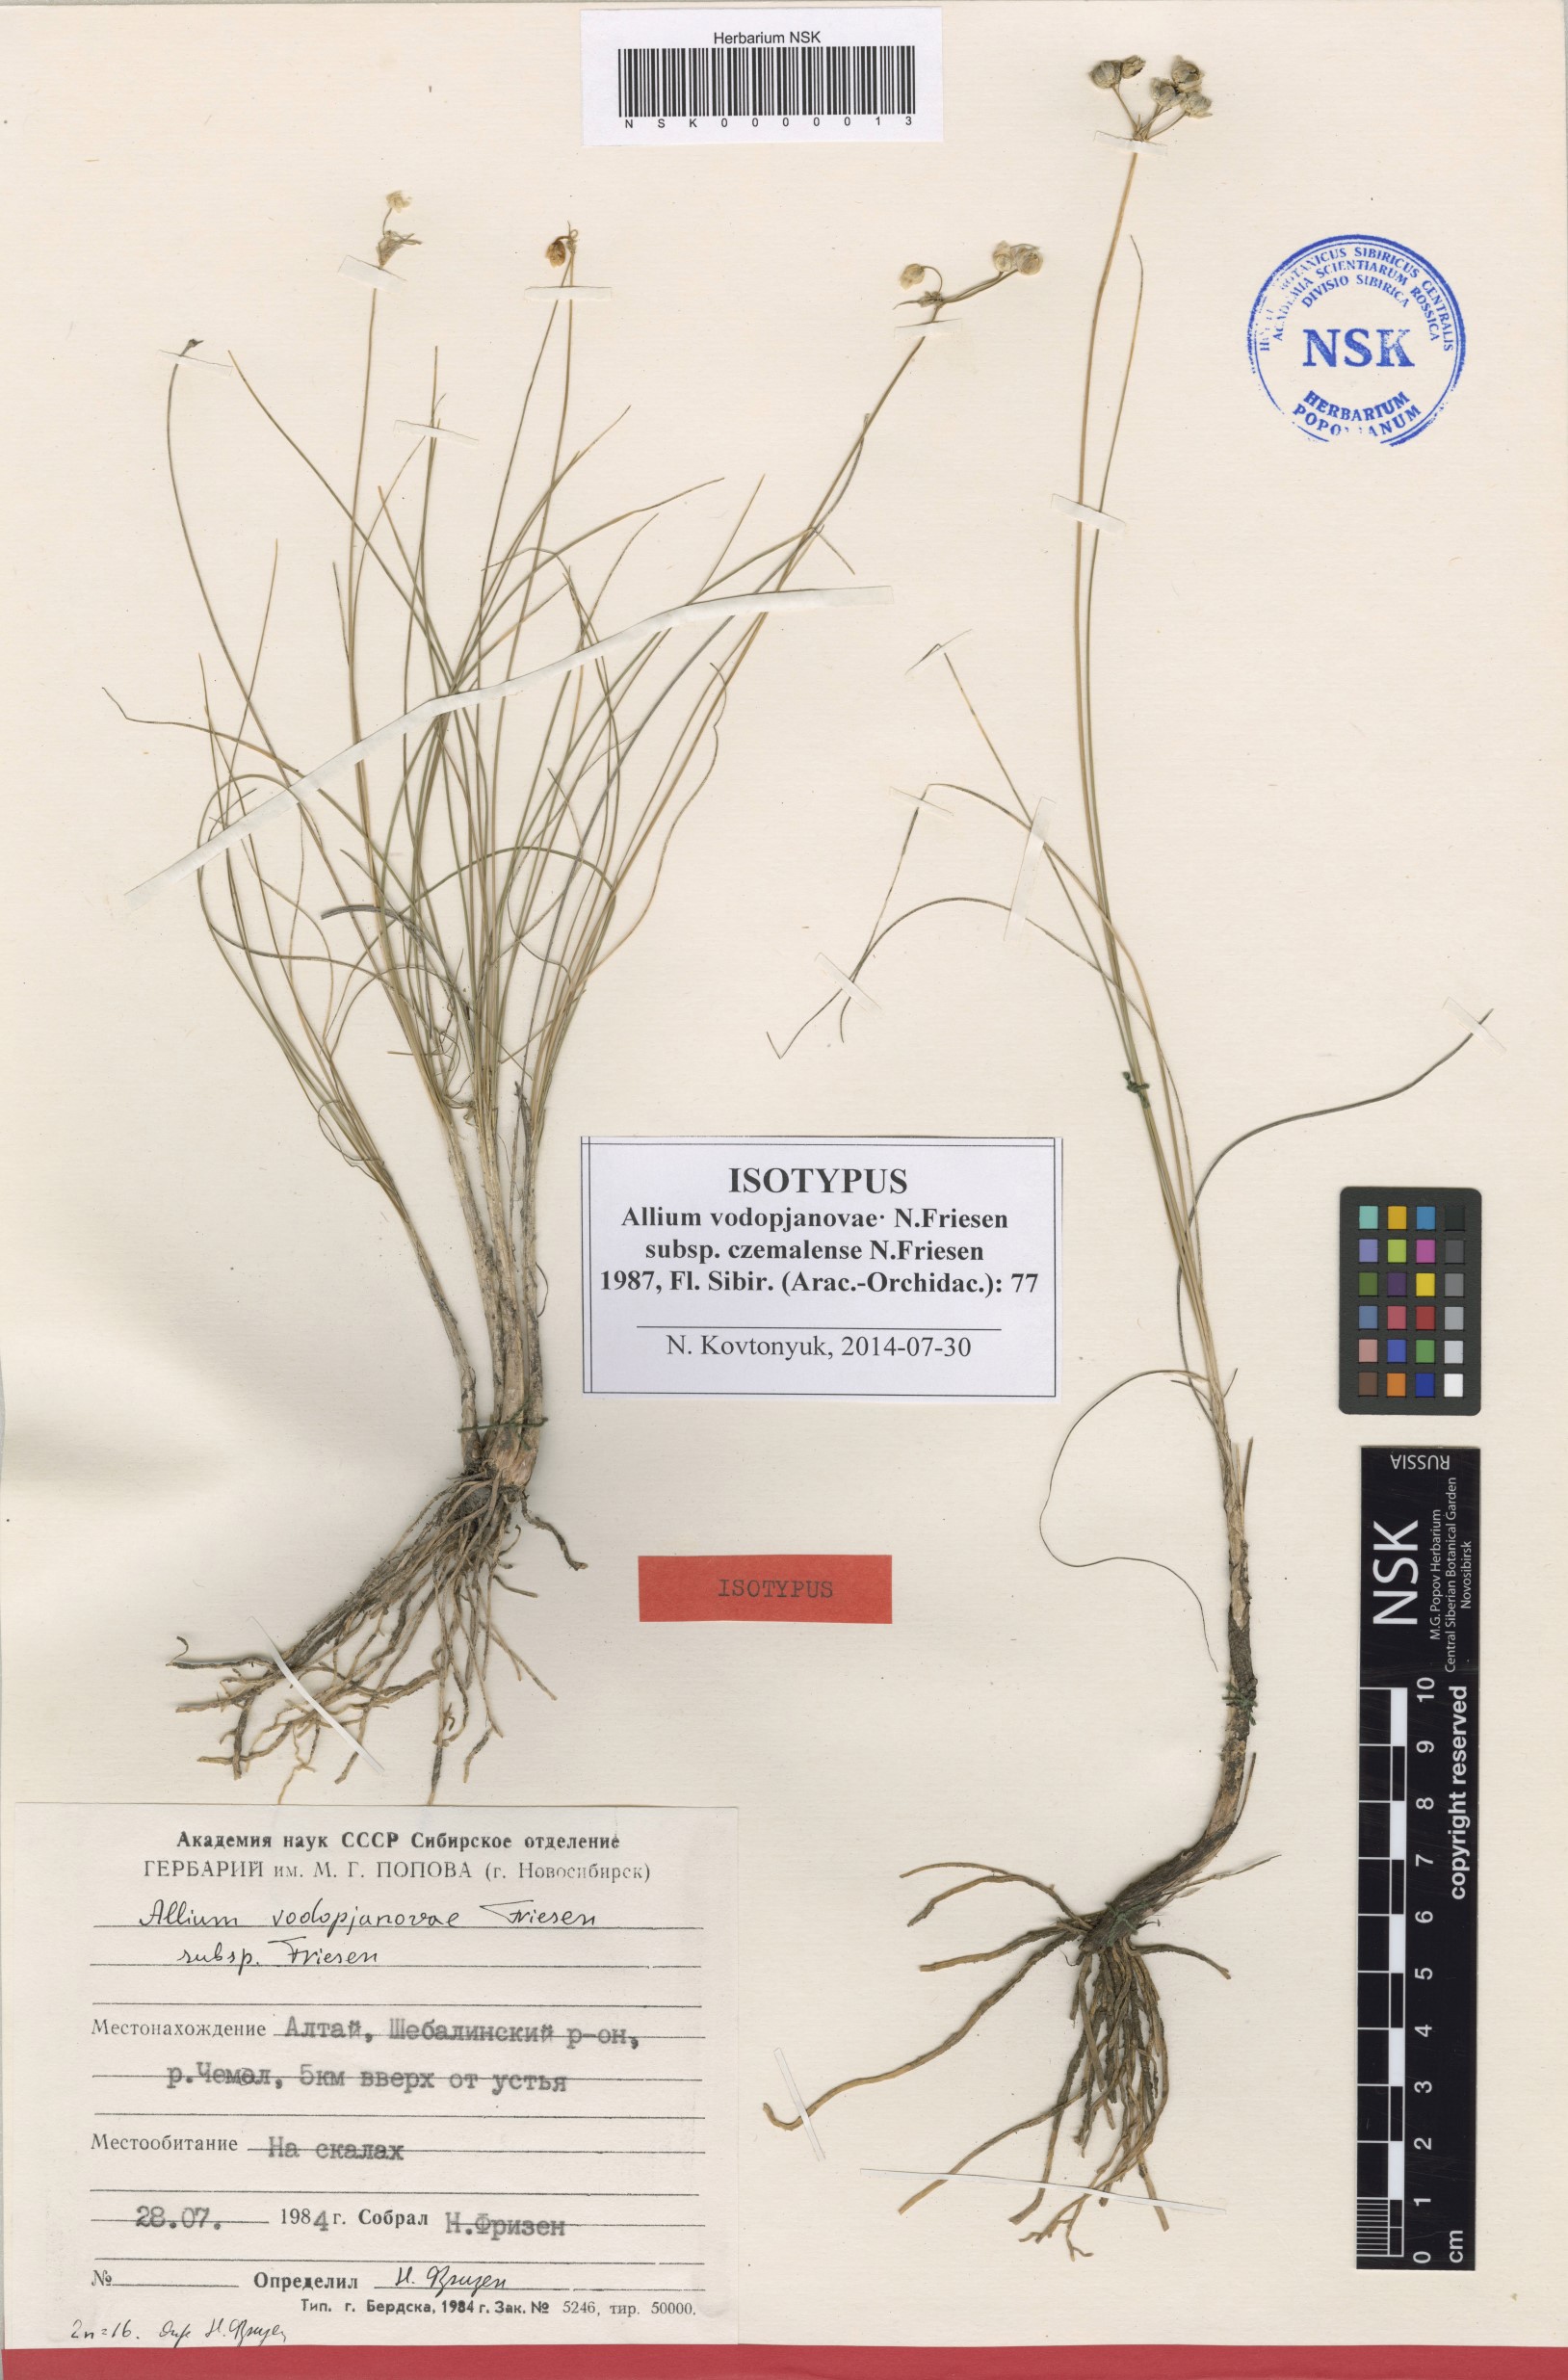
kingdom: Plantae
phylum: Tracheophyta
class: Liliopsida
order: Asparagales
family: Amaryllidaceae
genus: Allium
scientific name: Allium vodopjanovae
